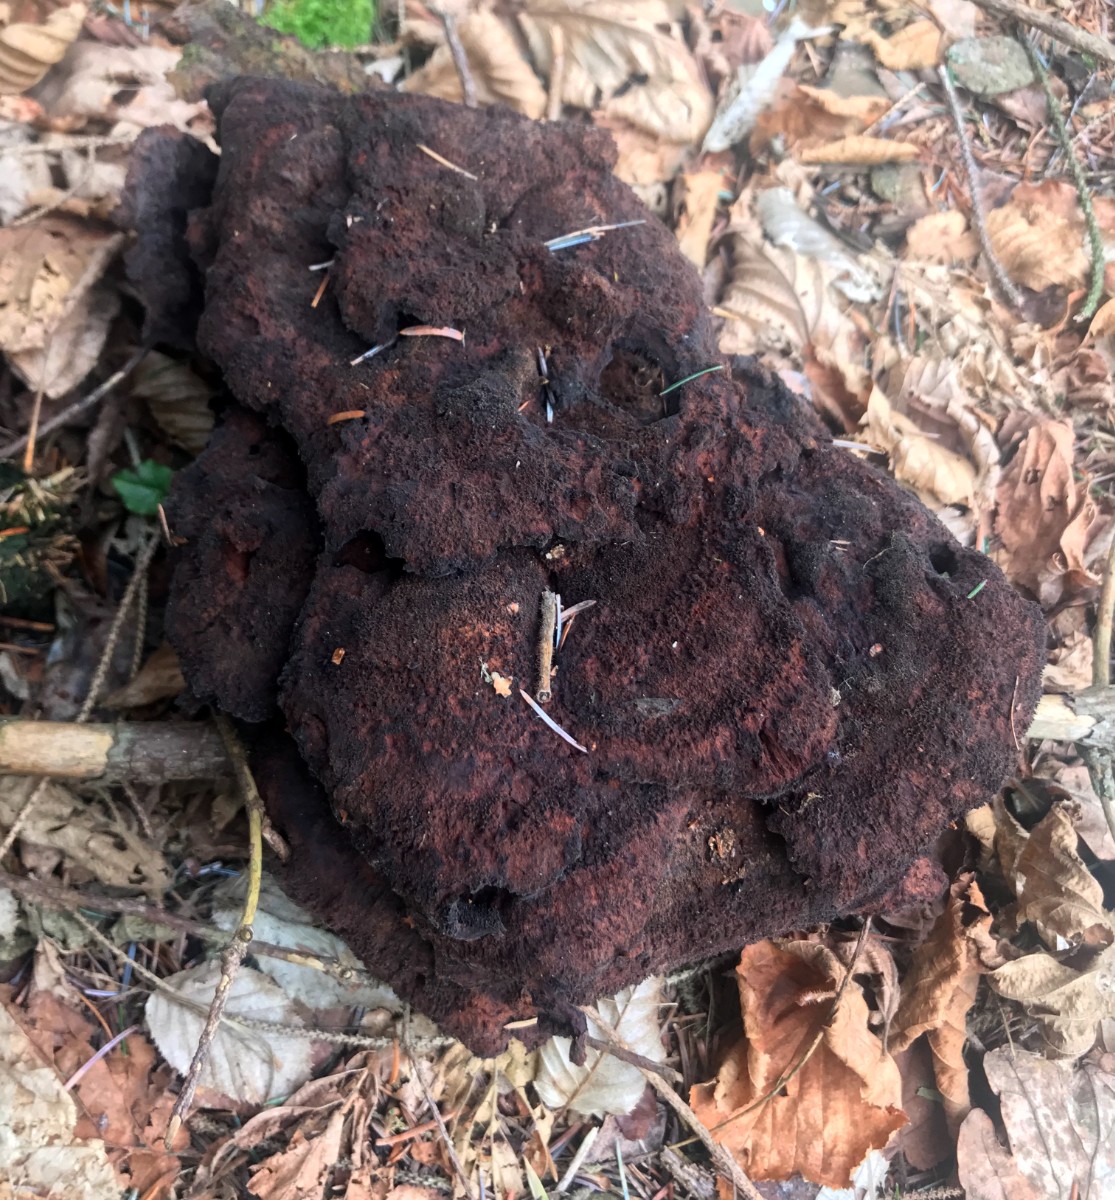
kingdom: Fungi
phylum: Basidiomycota
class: Agaricomycetes
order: Polyporales
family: Laetiporaceae
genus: Phaeolus
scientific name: Phaeolus schweinitzii
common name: brunporesvamp
